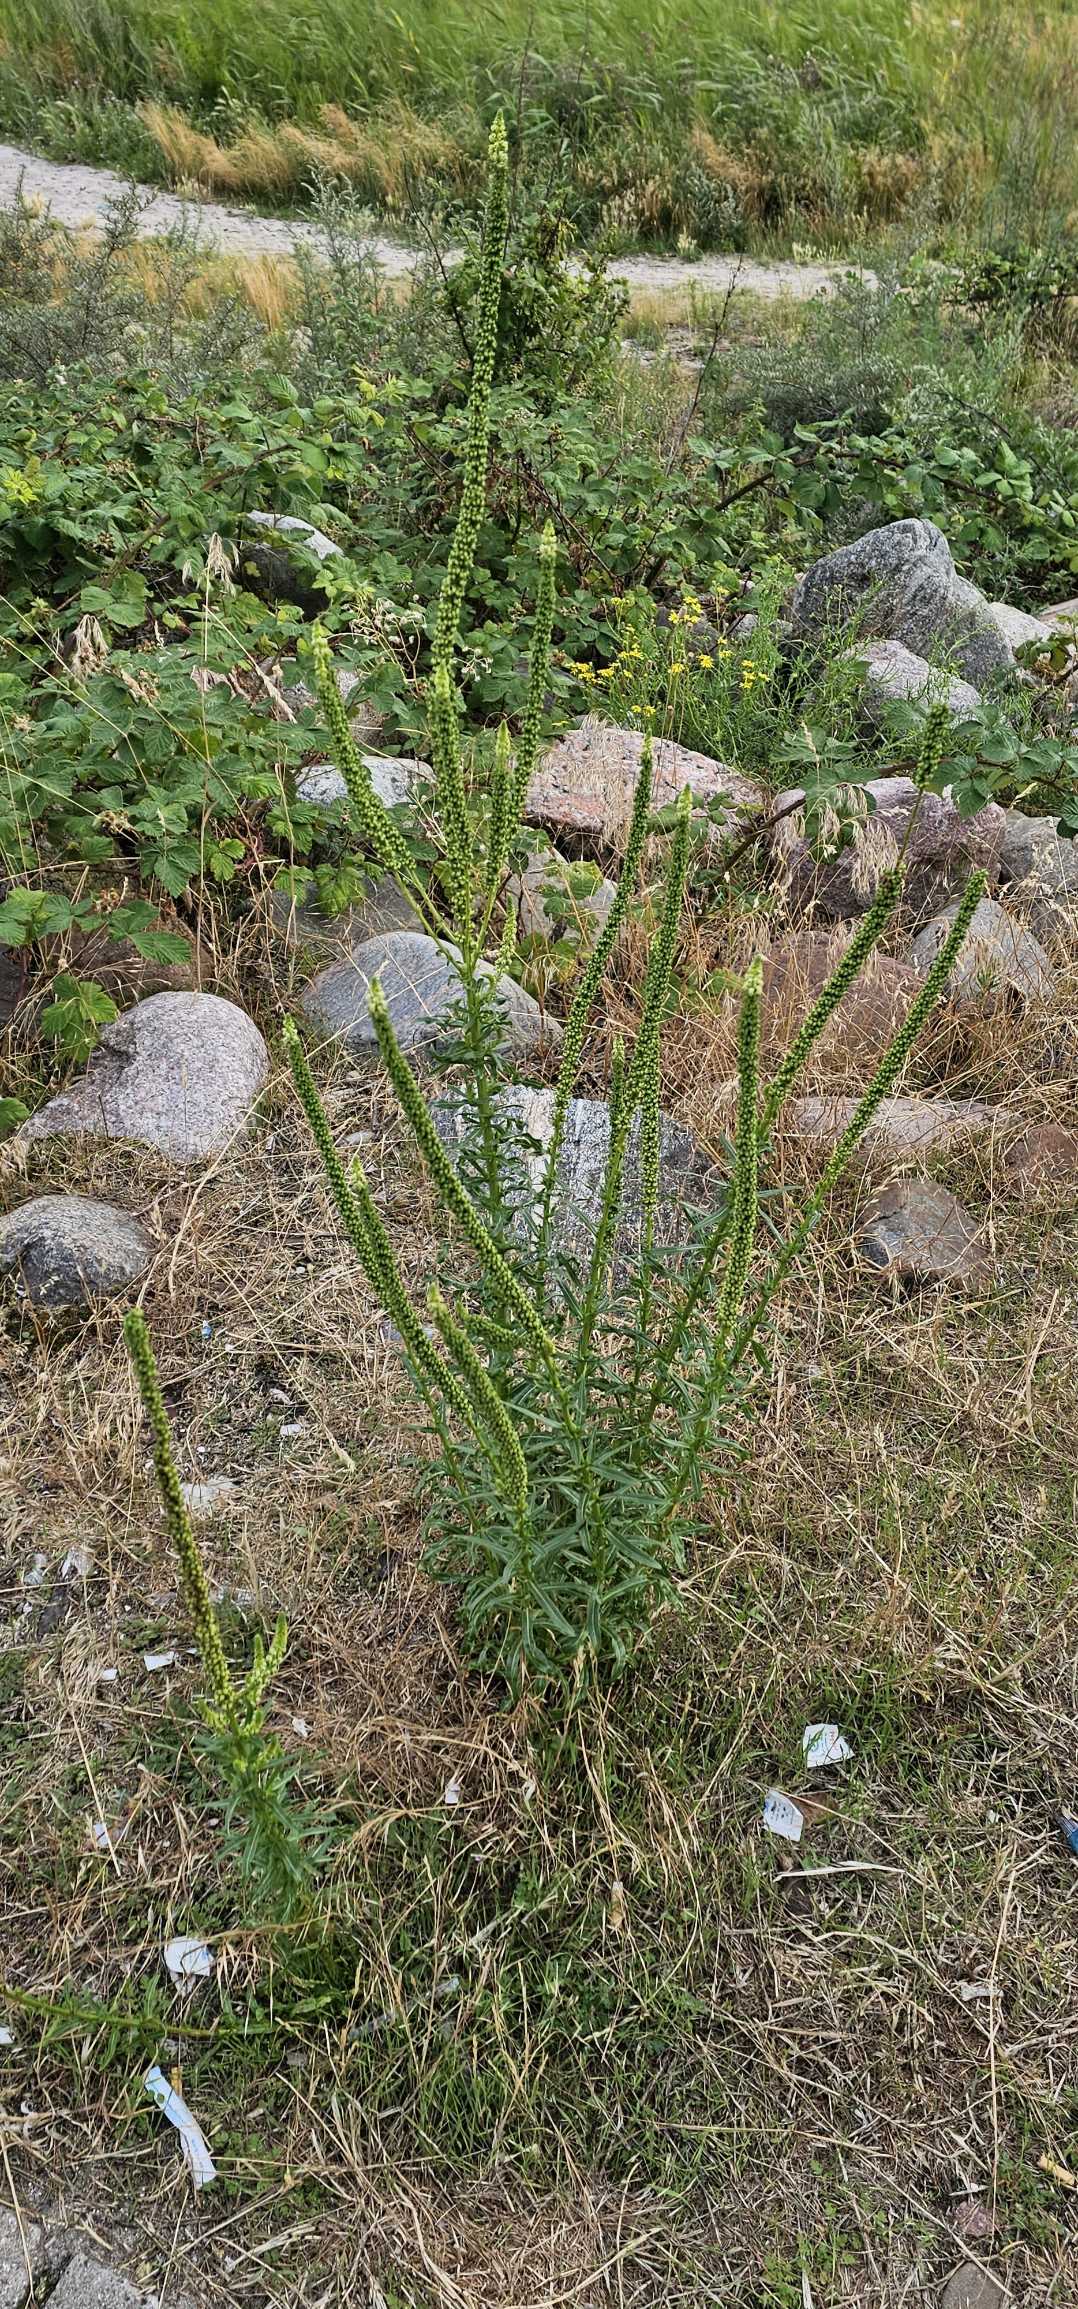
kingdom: Plantae
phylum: Tracheophyta
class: Magnoliopsida
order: Brassicales
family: Resedaceae
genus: Reseda
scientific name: Reseda luteola
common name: Farve-reseda
